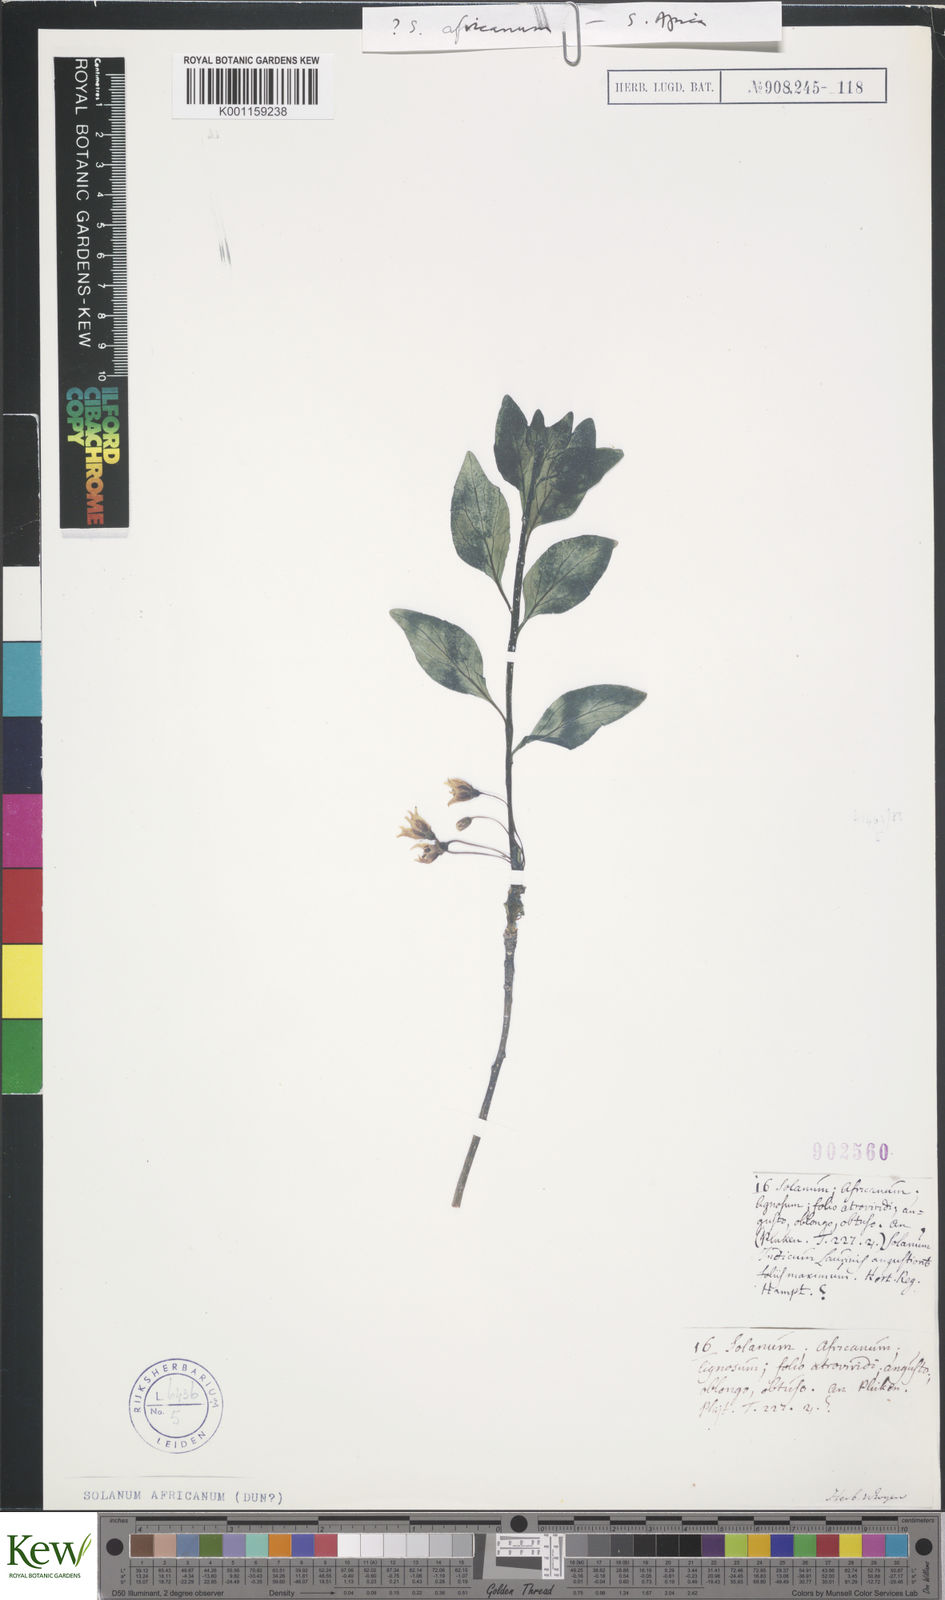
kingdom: Plantae
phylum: Tracheophyta
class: Magnoliopsida
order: Solanales
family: Solanaceae
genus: Solanum
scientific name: Solanum guineense
